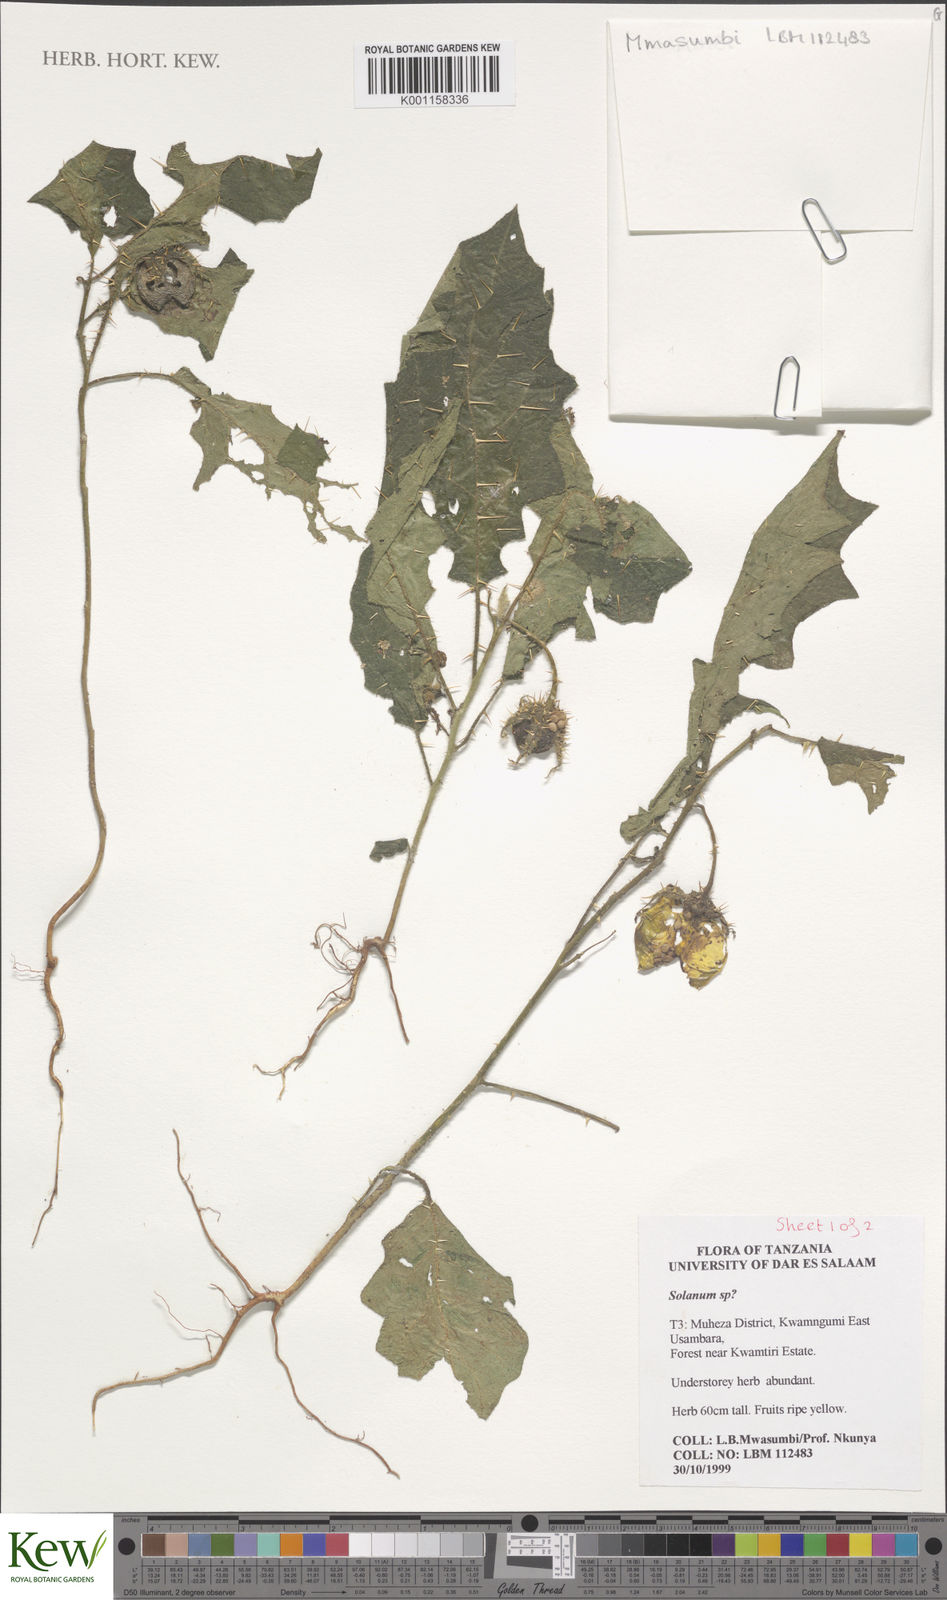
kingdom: Plantae
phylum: Tracheophyta
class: Magnoliopsida
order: Solanales
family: Solanaceae
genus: Solanum
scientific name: Solanum dasyphyllum
